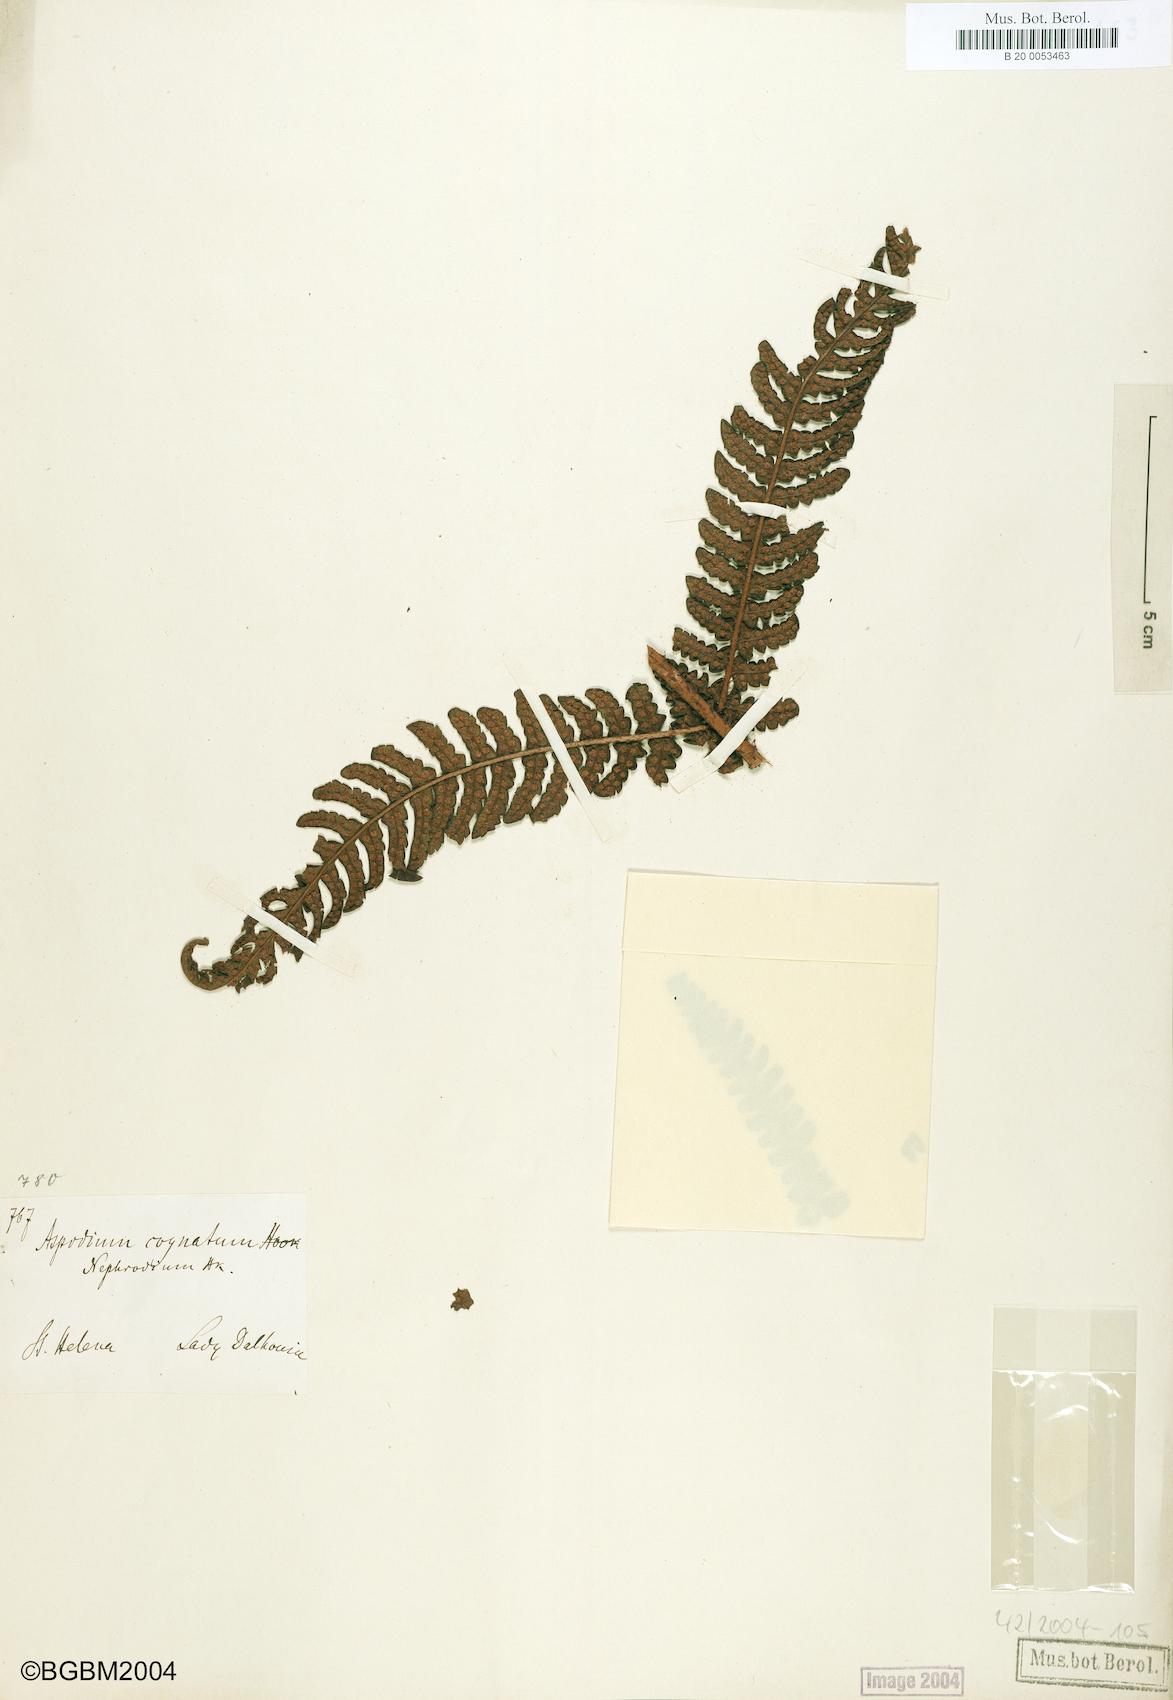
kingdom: Plantae
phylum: Tracheophyta
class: Polypodiopsida
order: Polypodiales
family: Dryopteridaceae
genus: Dryopteris
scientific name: Dryopteris cognata
